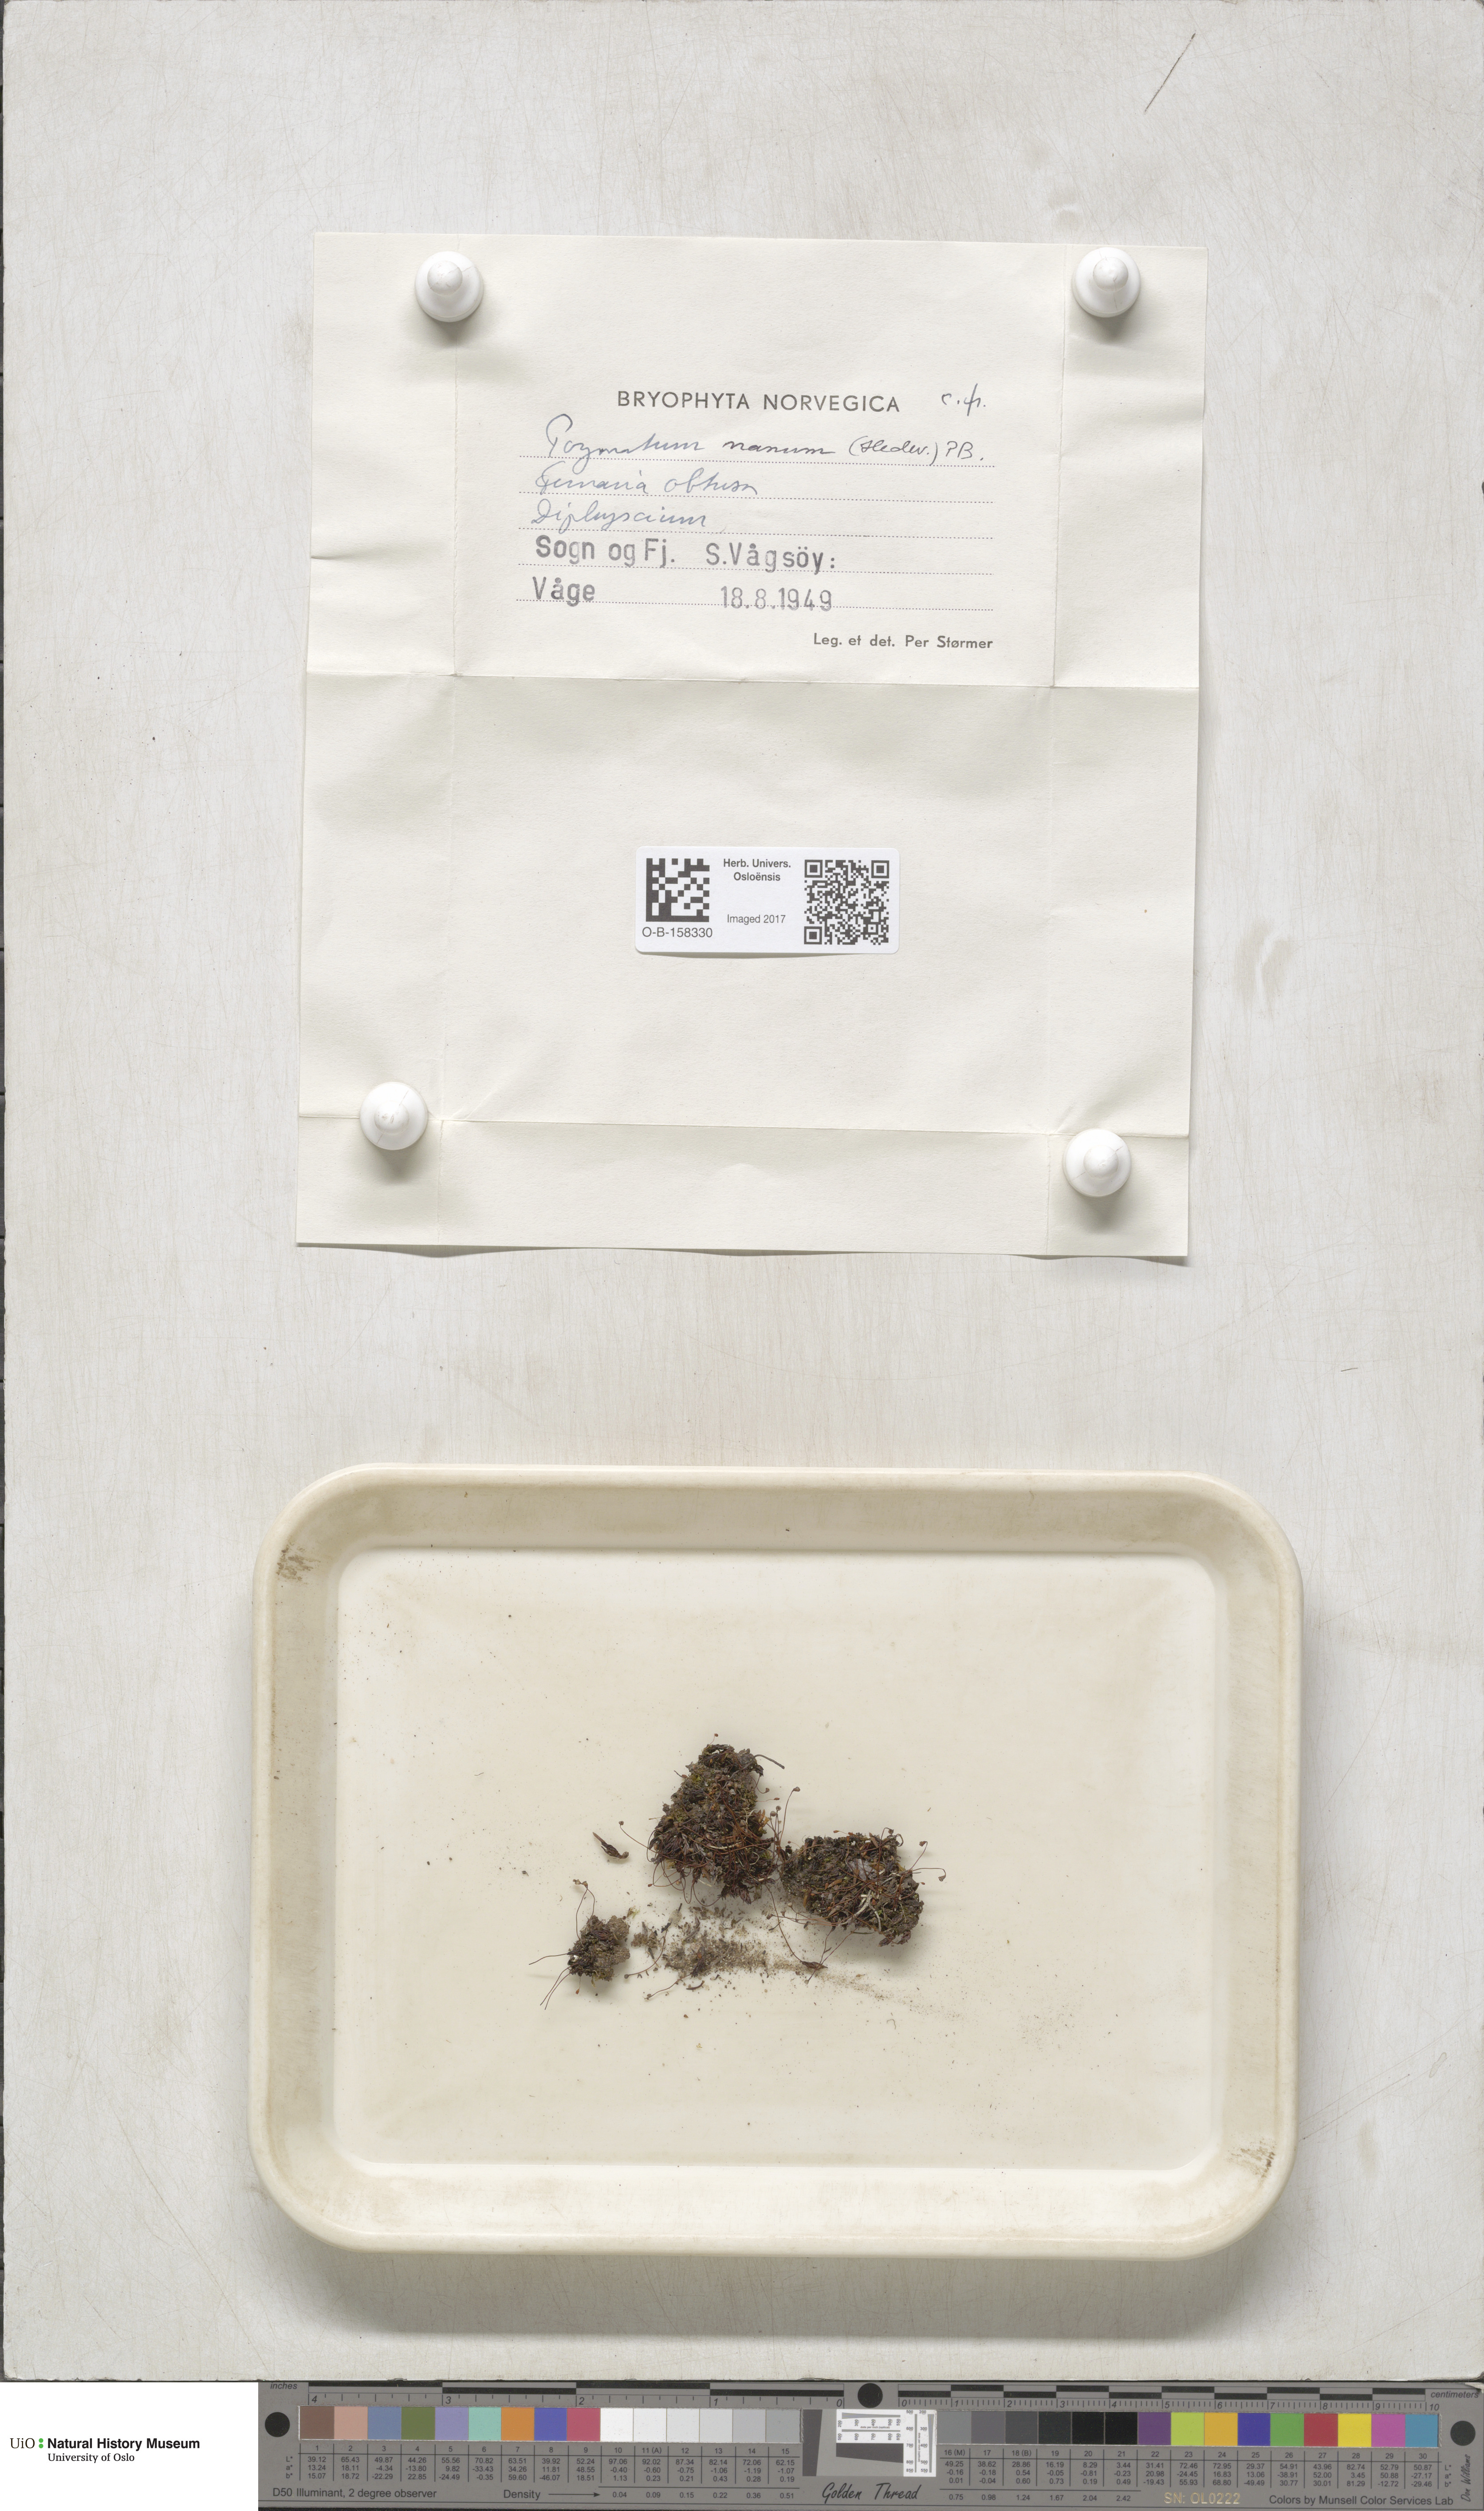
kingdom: Plantae
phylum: Bryophyta
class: Polytrichopsida
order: Polytrichales
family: Polytrichaceae
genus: Pogonatum
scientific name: Pogonatum nanum
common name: Dwarf haircap
